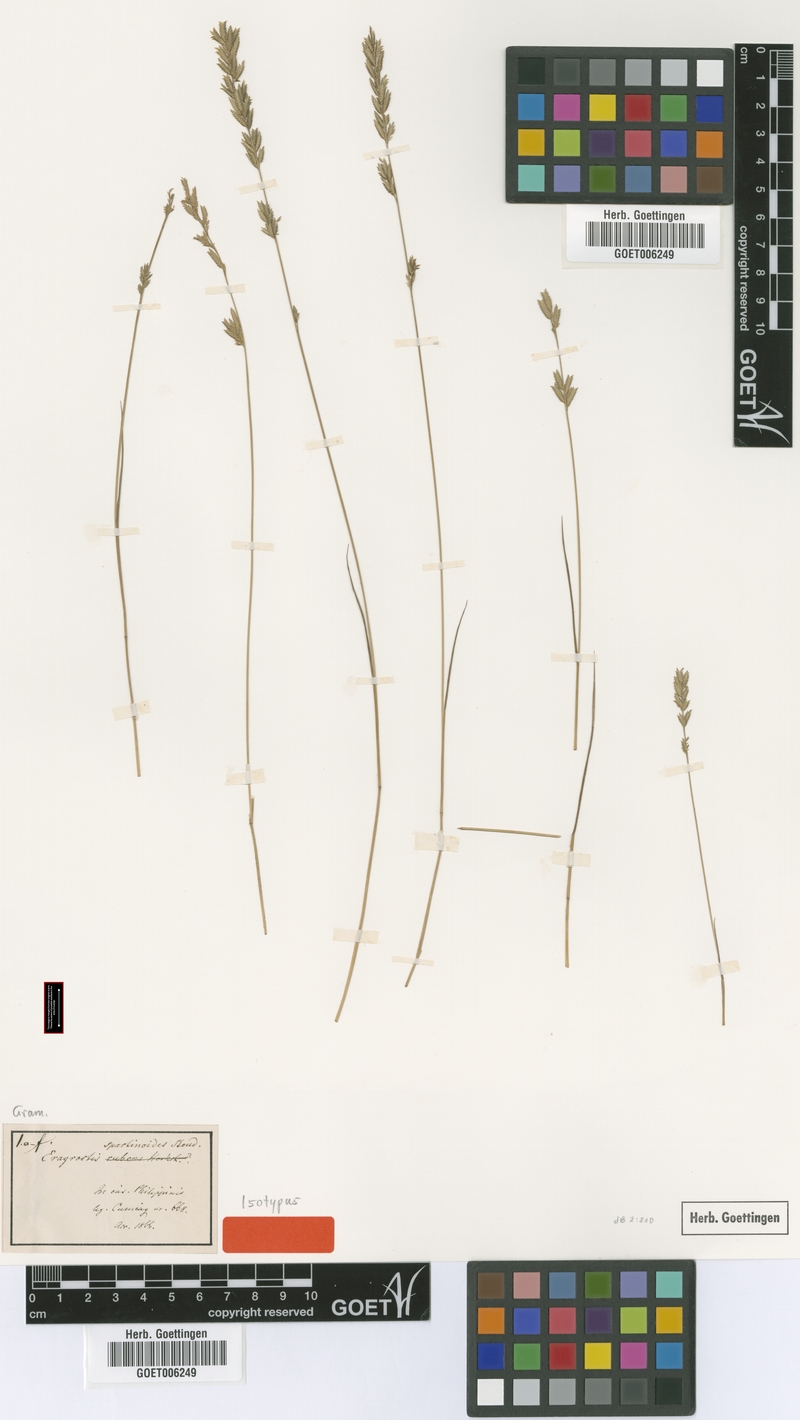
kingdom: Plantae
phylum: Tracheophyta
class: Liliopsida
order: Poales
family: Poaceae
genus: Eragrostis
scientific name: Eragrostis brownii
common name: Lovegrass
